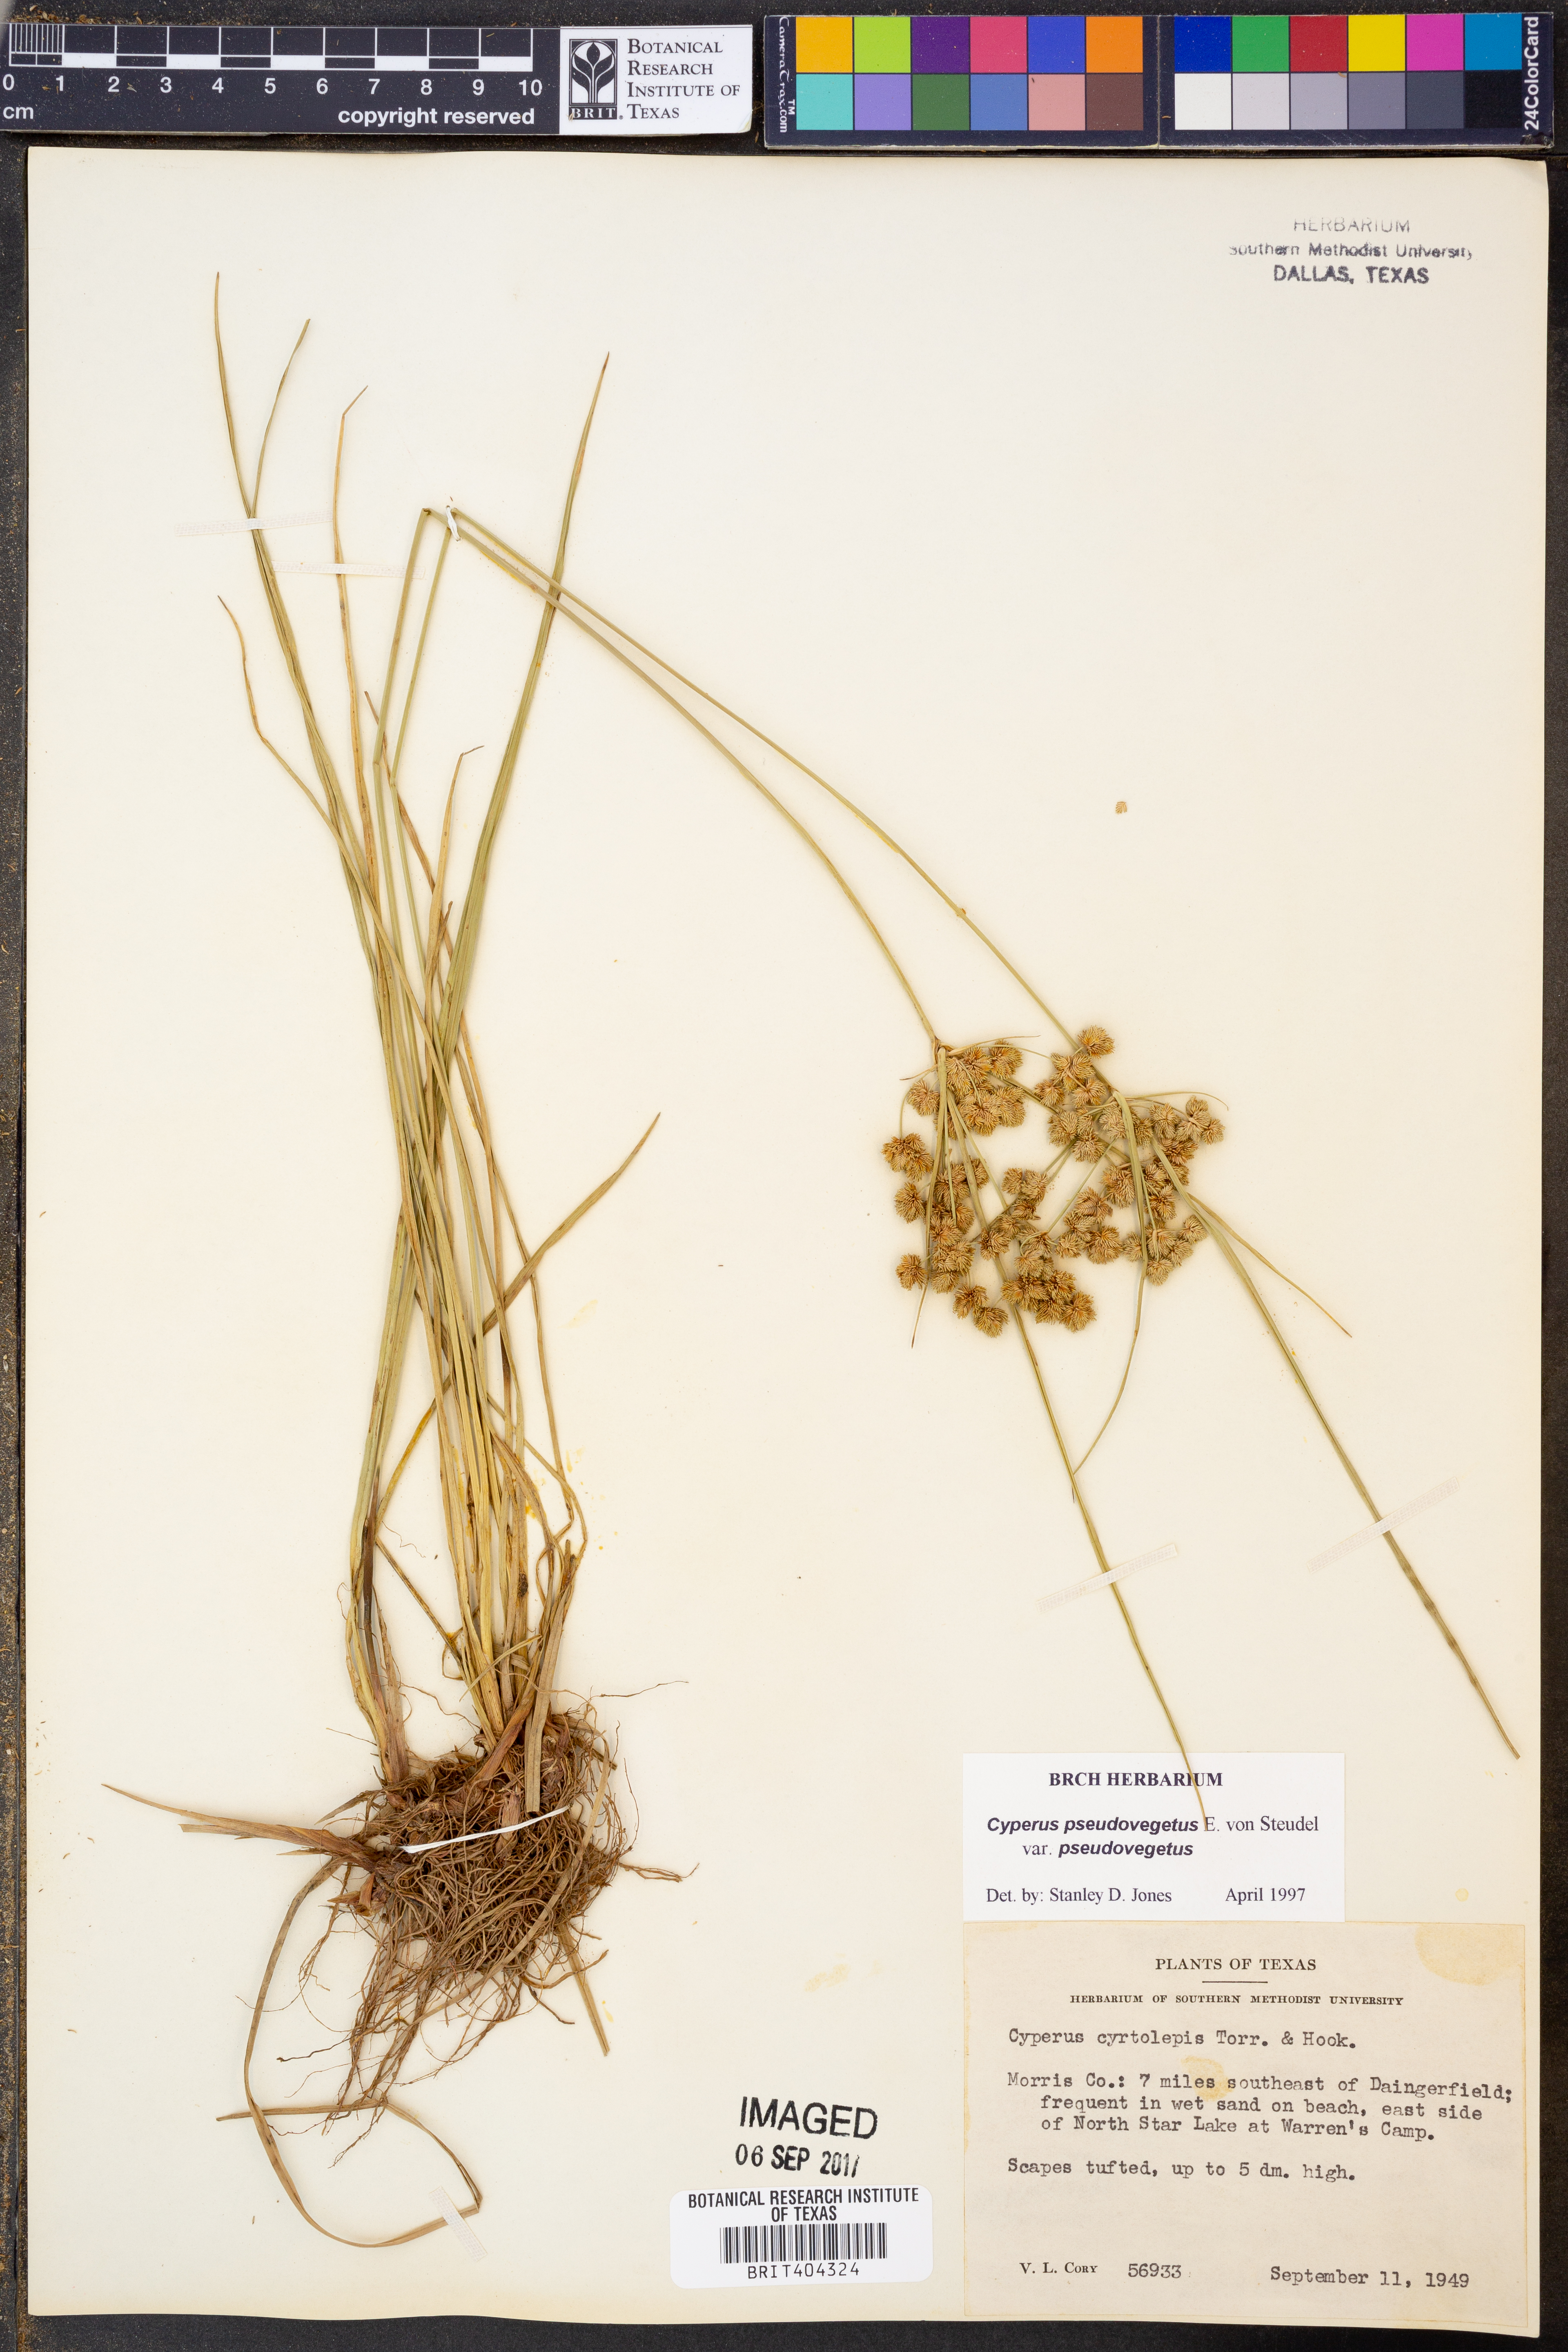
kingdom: Plantae
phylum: Tracheophyta
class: Liliopsida
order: Poales
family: Cyperaceae
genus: Cyperus
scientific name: Cyperus pseudovegetus
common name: Marsh flat sedge
